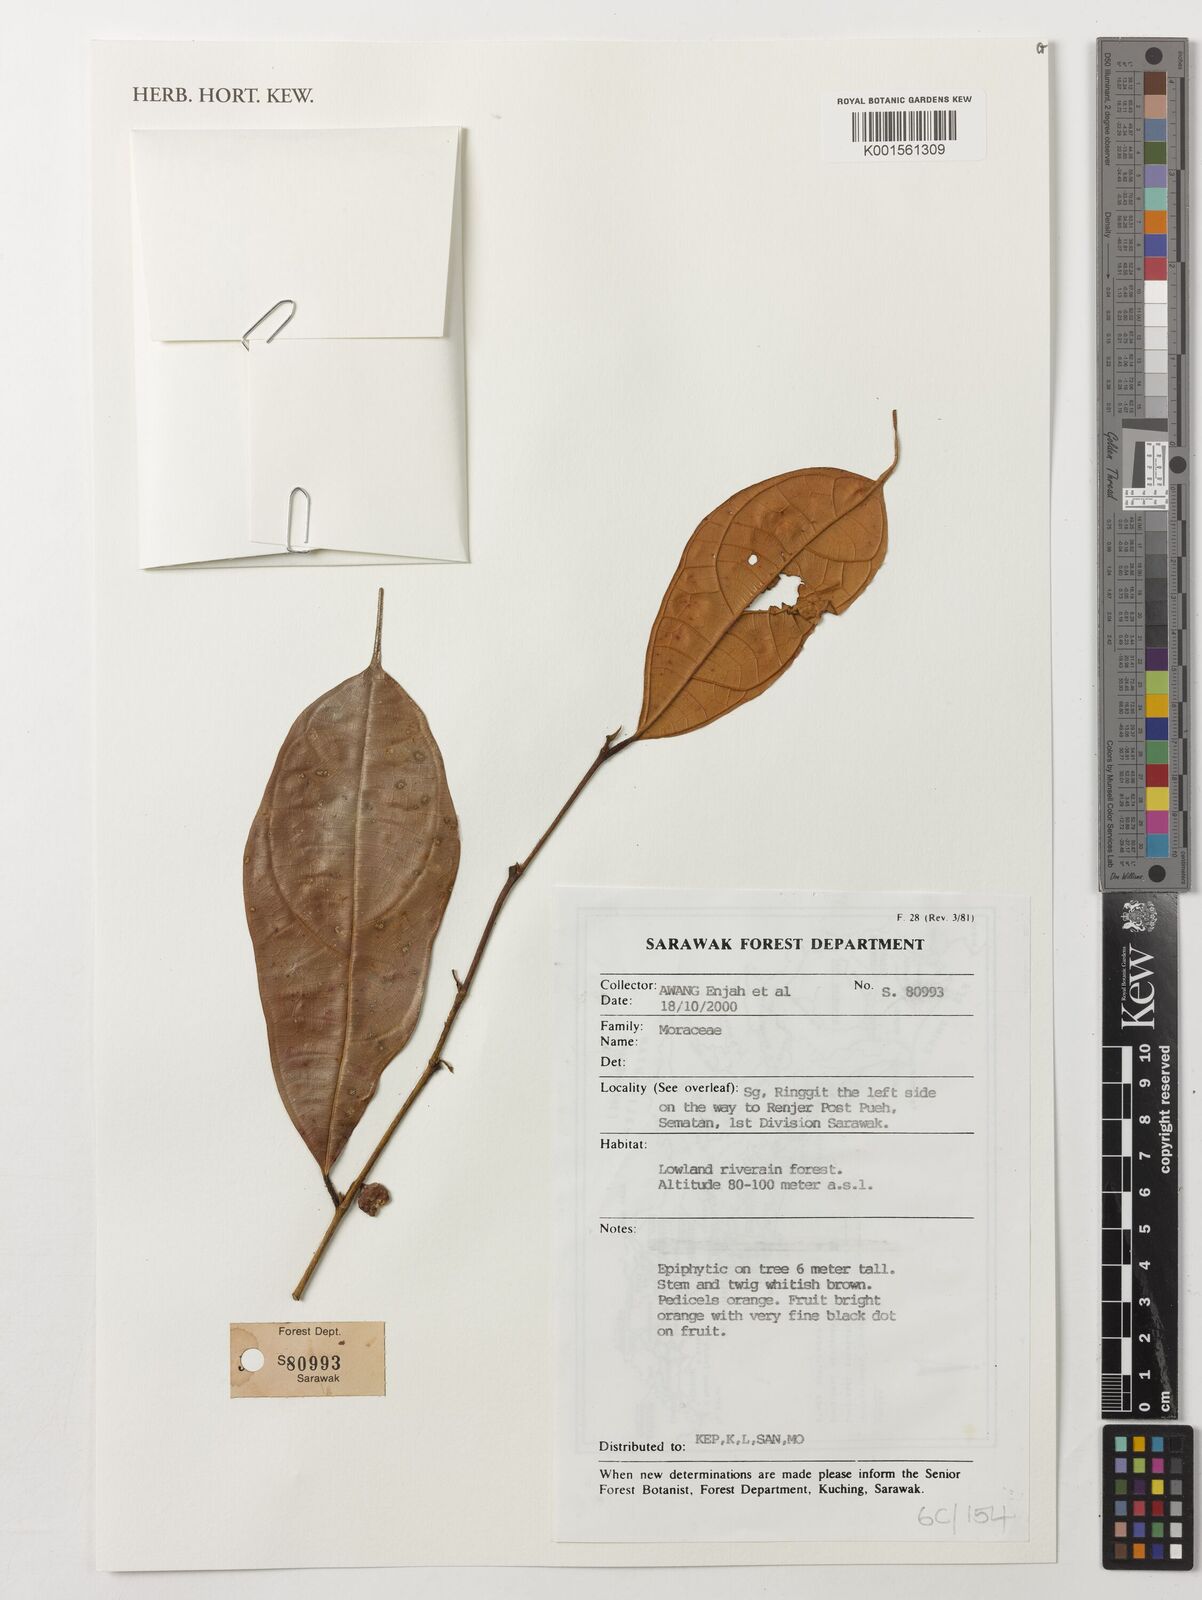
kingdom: Plantae
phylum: Tracheophyta
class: Magnoliopsida
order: Rosales
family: Moraceae
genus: Ficus
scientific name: Ficus
